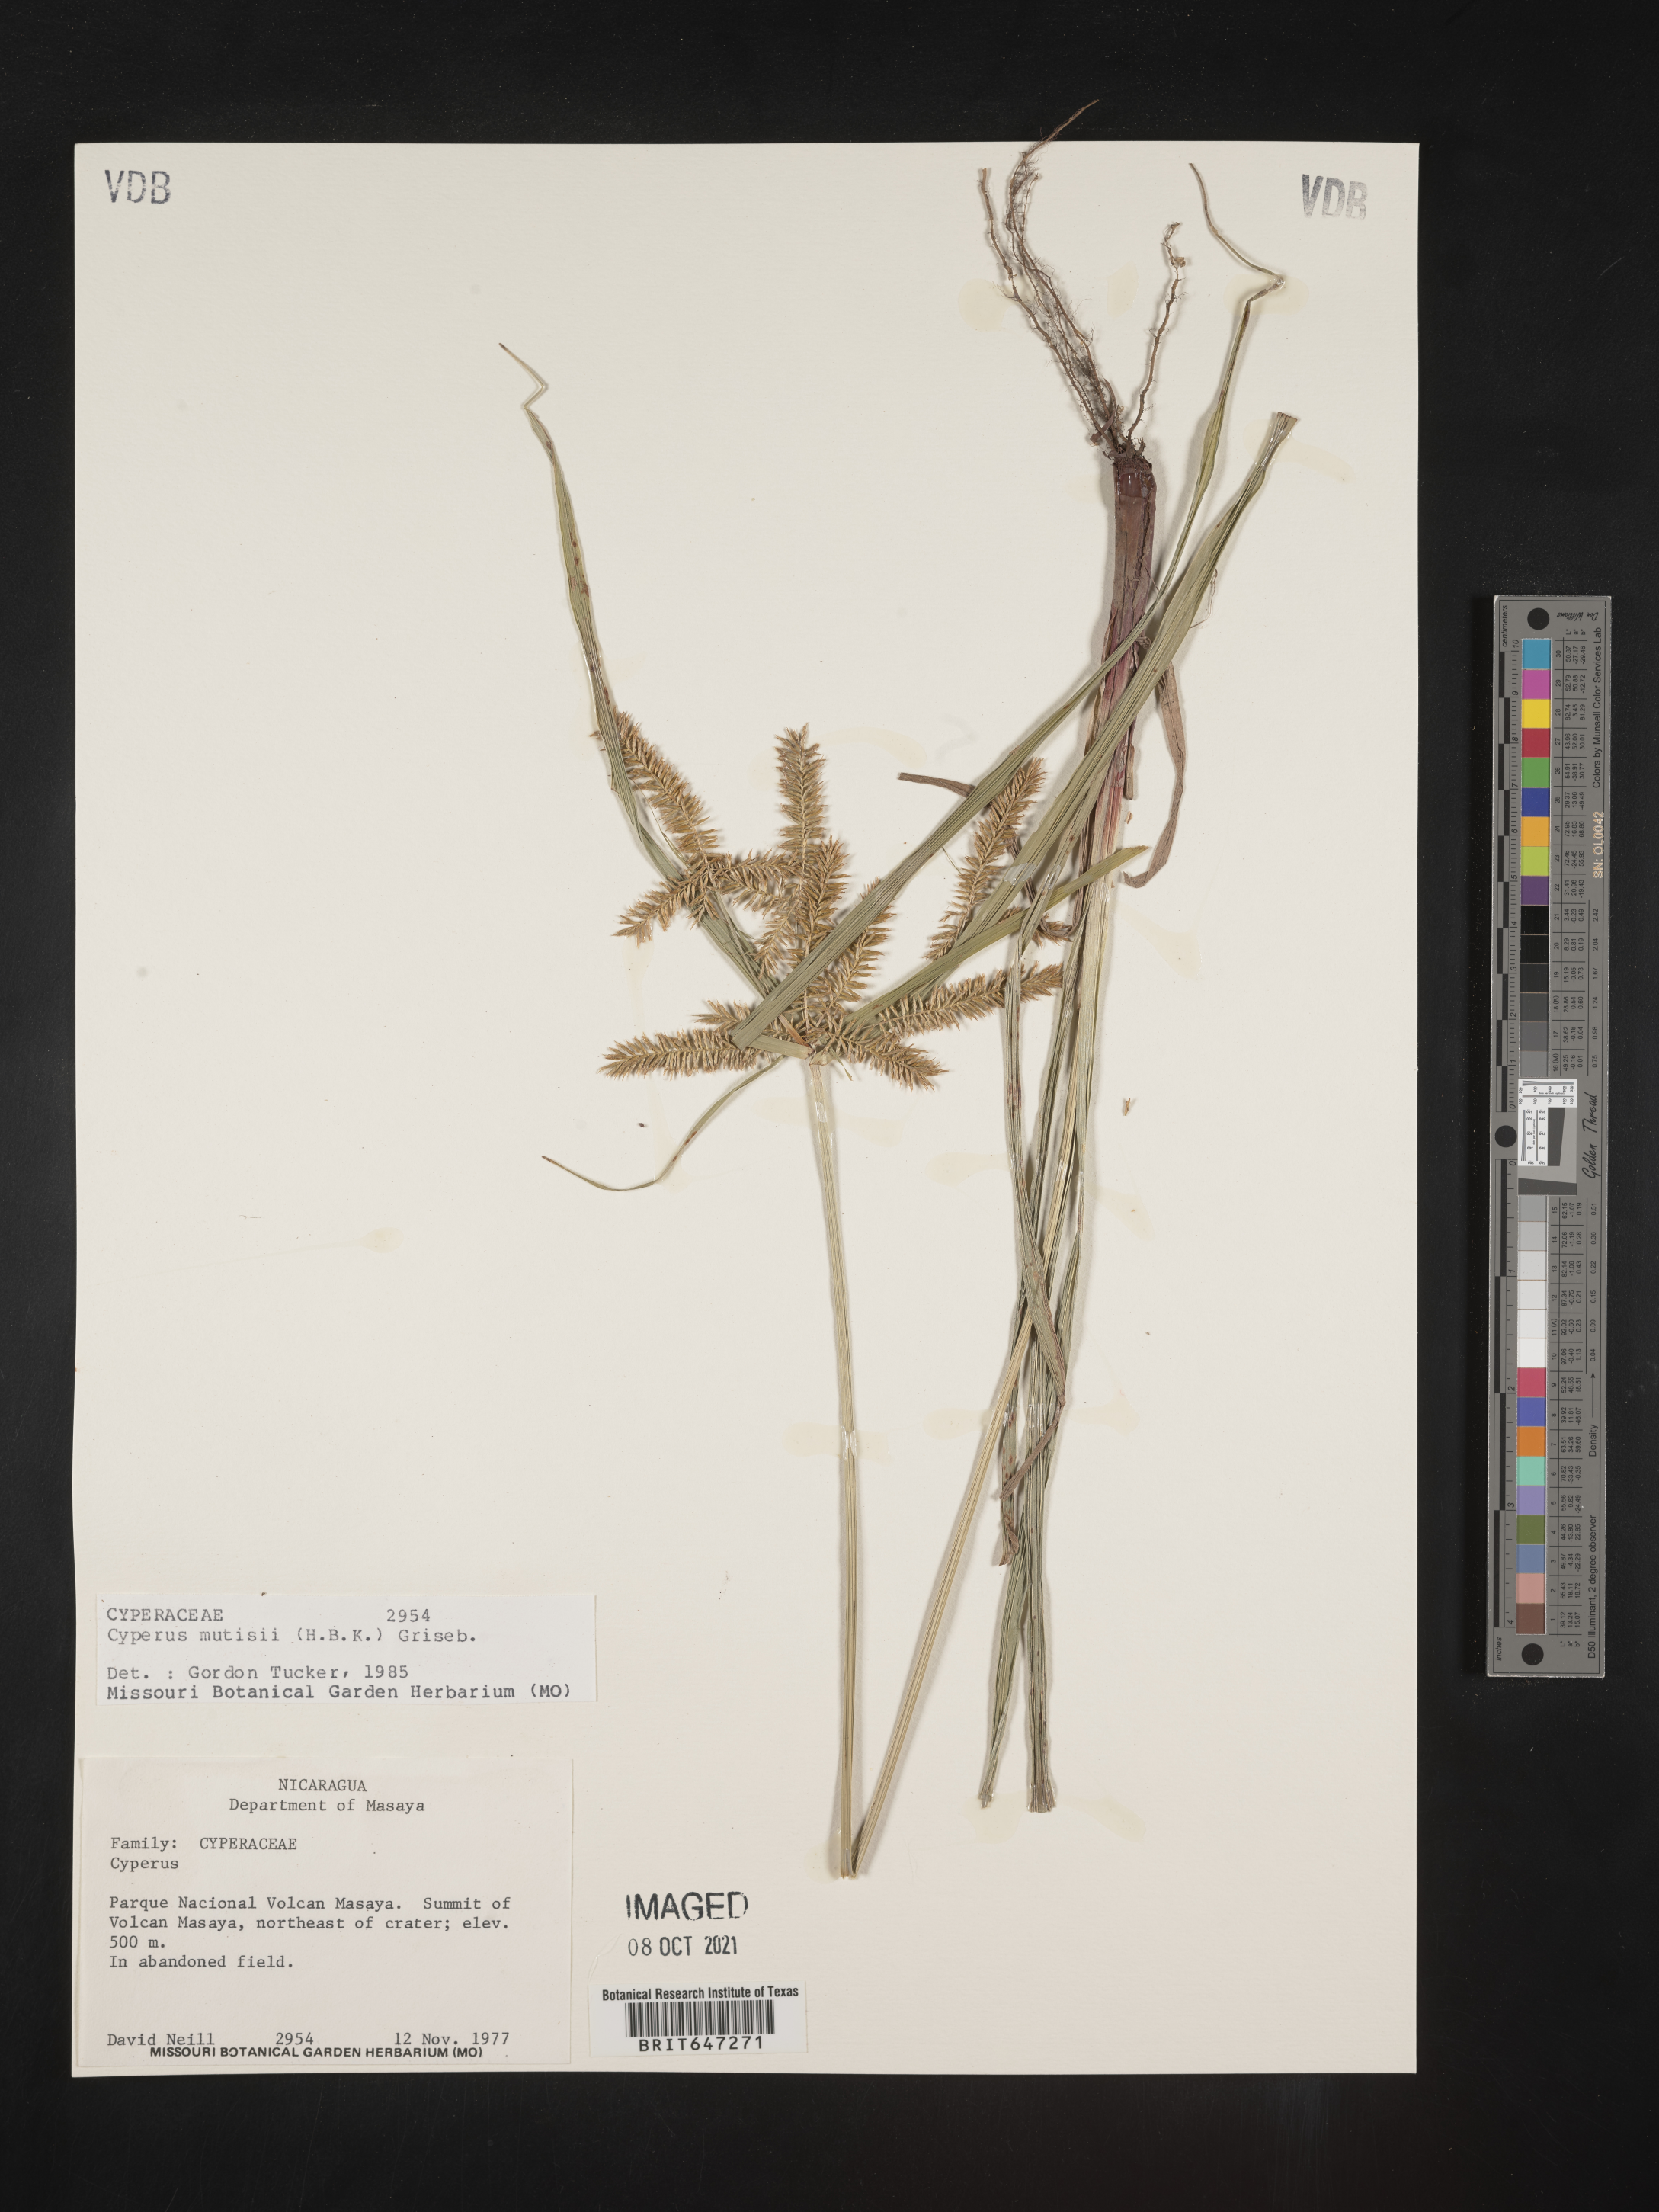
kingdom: Plantae
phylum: Tracheophyta
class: Liliopsida
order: Poales
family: Cyperaceae
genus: Cyperus
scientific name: Cyperus mutisii
